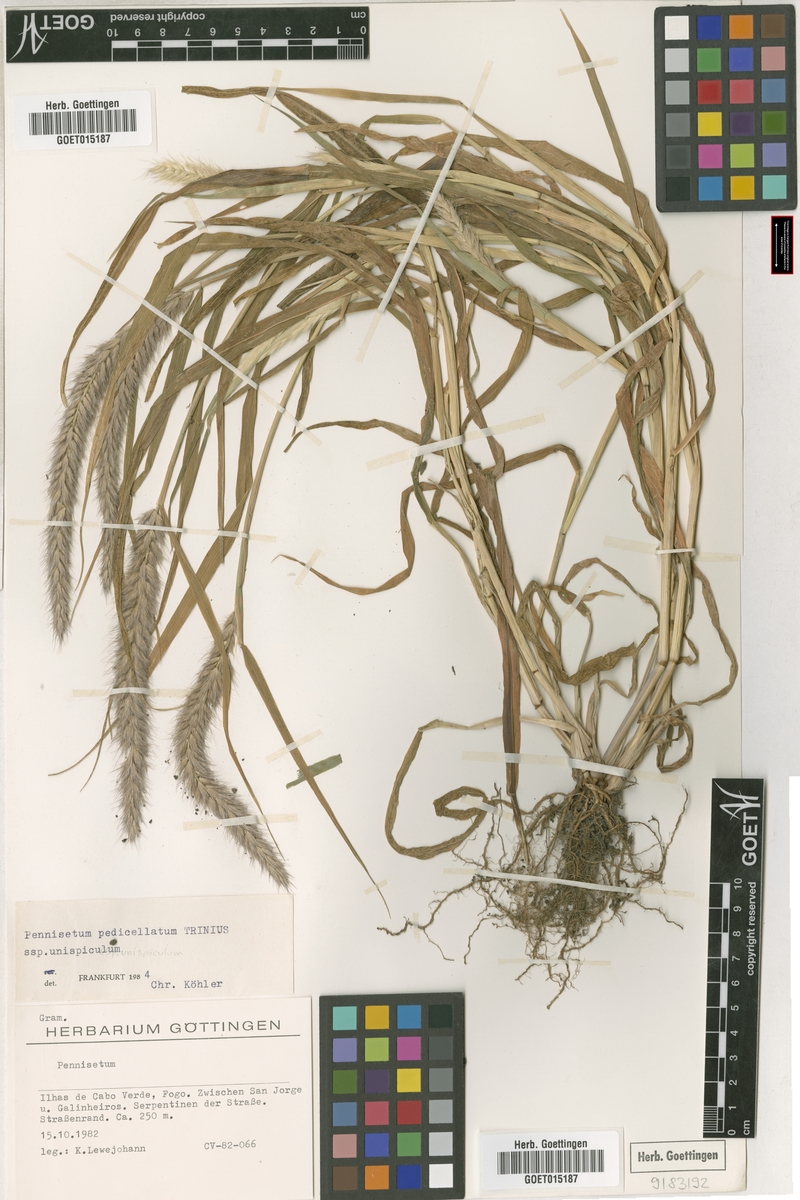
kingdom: Plantae
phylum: Tracheophyta
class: Liliopsida
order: Poales
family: Poaceae
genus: Cenchrus
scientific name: Cenchrus pedicellatus
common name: Hairy fountain grass
